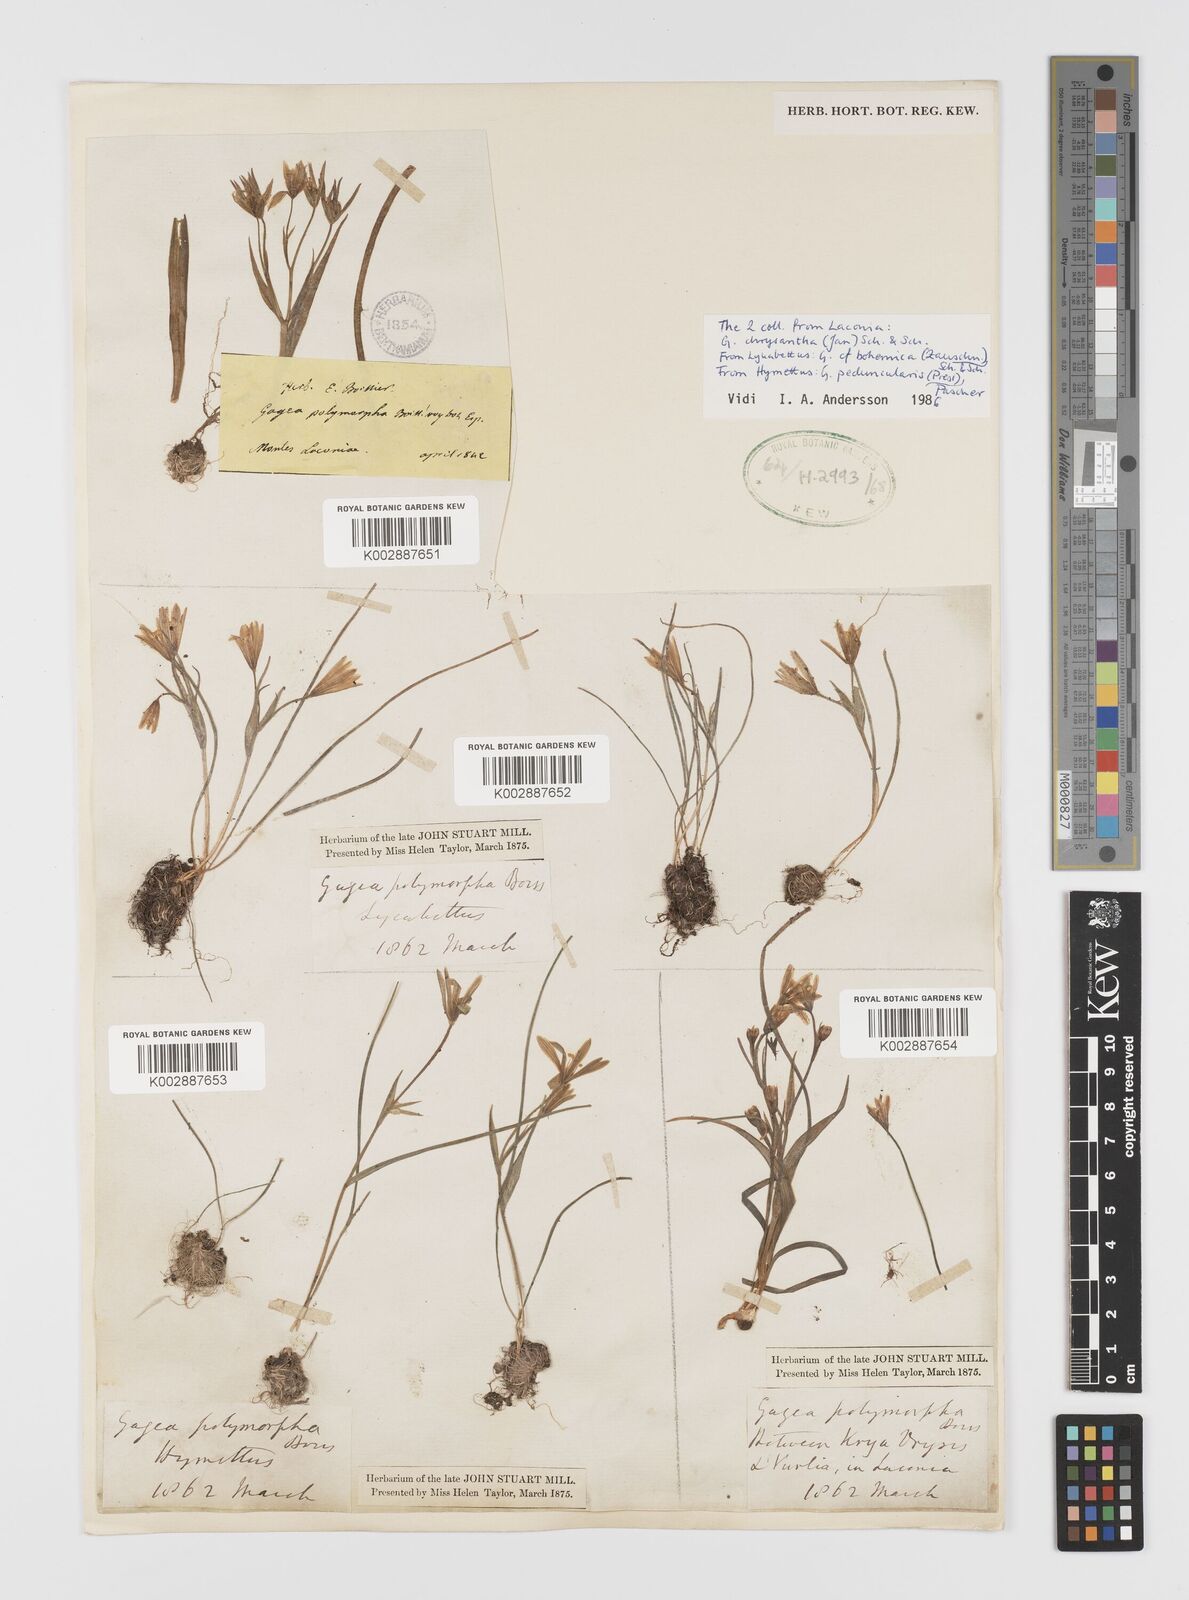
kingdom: Plantae
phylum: Tracheophyta
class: Liliopsida
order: Liliales
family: Liliaceae
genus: Gagea
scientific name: Gagea polymorpha
